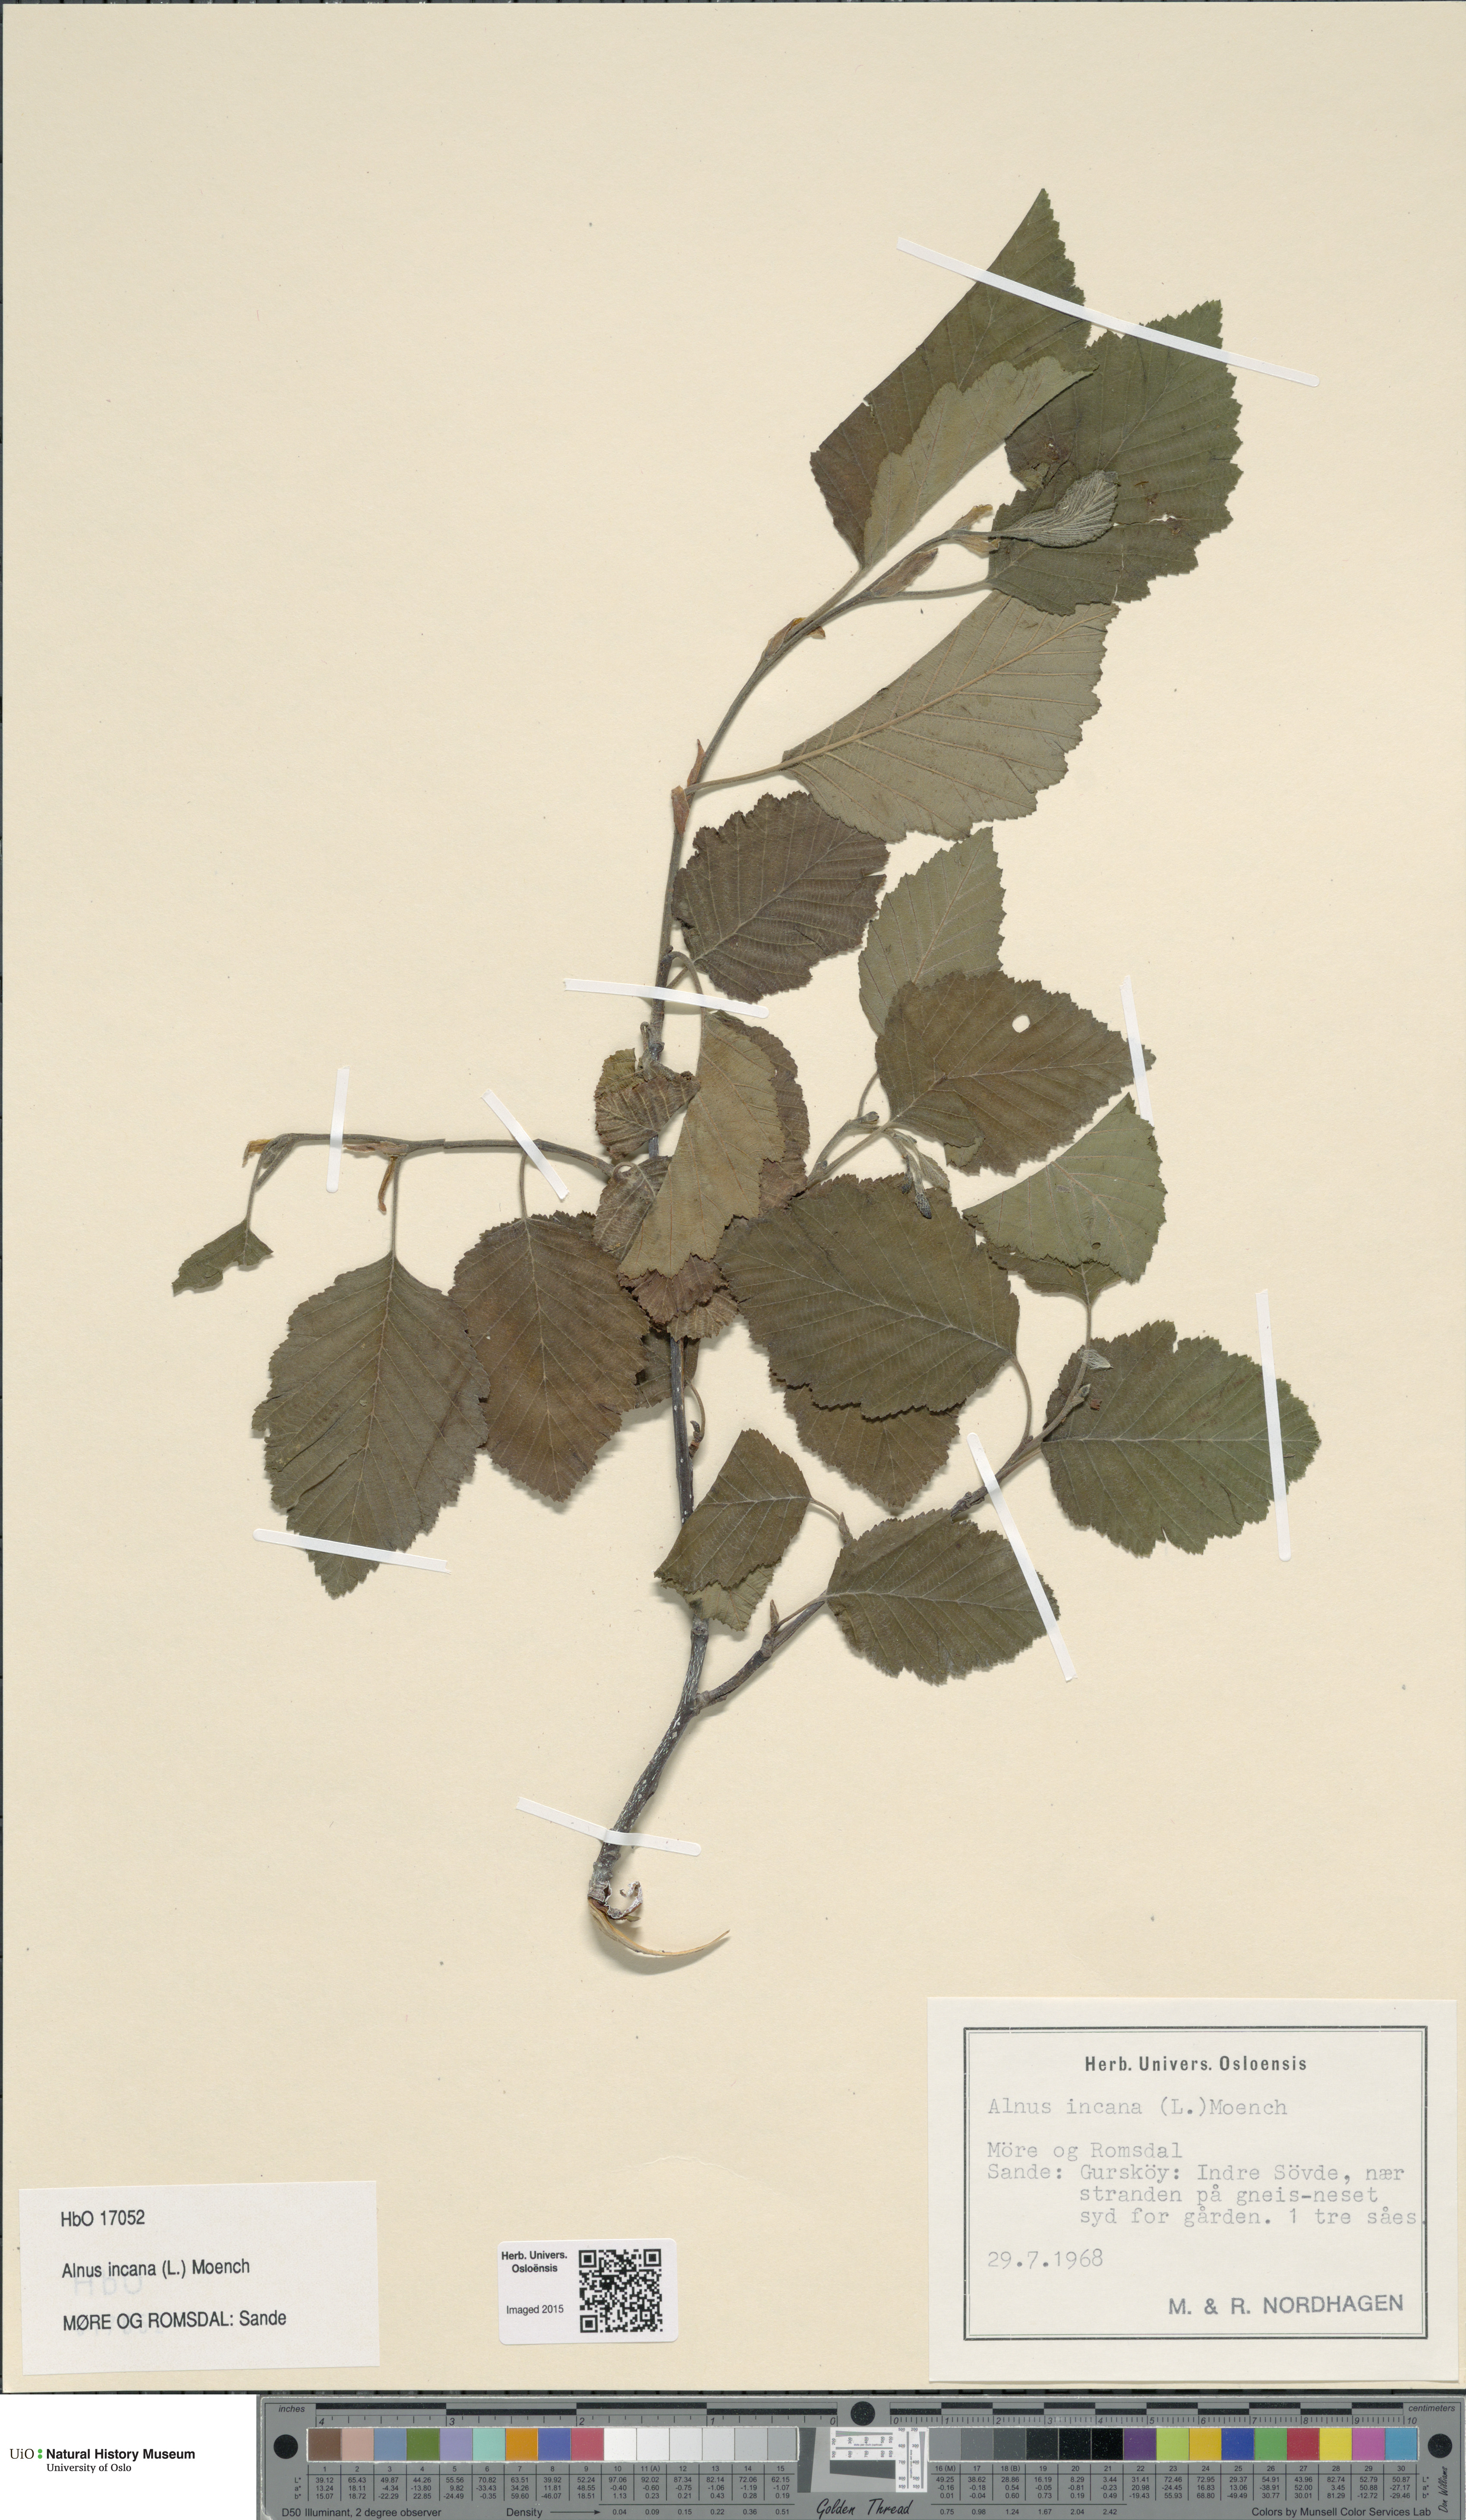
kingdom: Plantae
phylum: Tracheophyta
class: Magnoliopsida
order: Fagales
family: Betulaceae
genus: Alnus
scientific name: Alnus incana
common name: Grey alder
